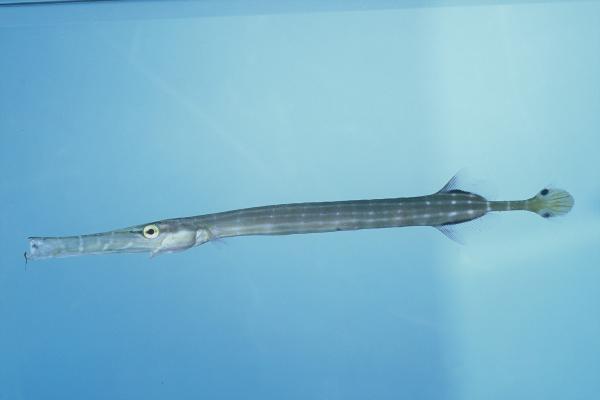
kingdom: Animalia
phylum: Chordata
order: Syngnathiformes
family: Aulostomidae
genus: Aulostomus
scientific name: Aulostomus chinensis
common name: Chinese trumpetfish
